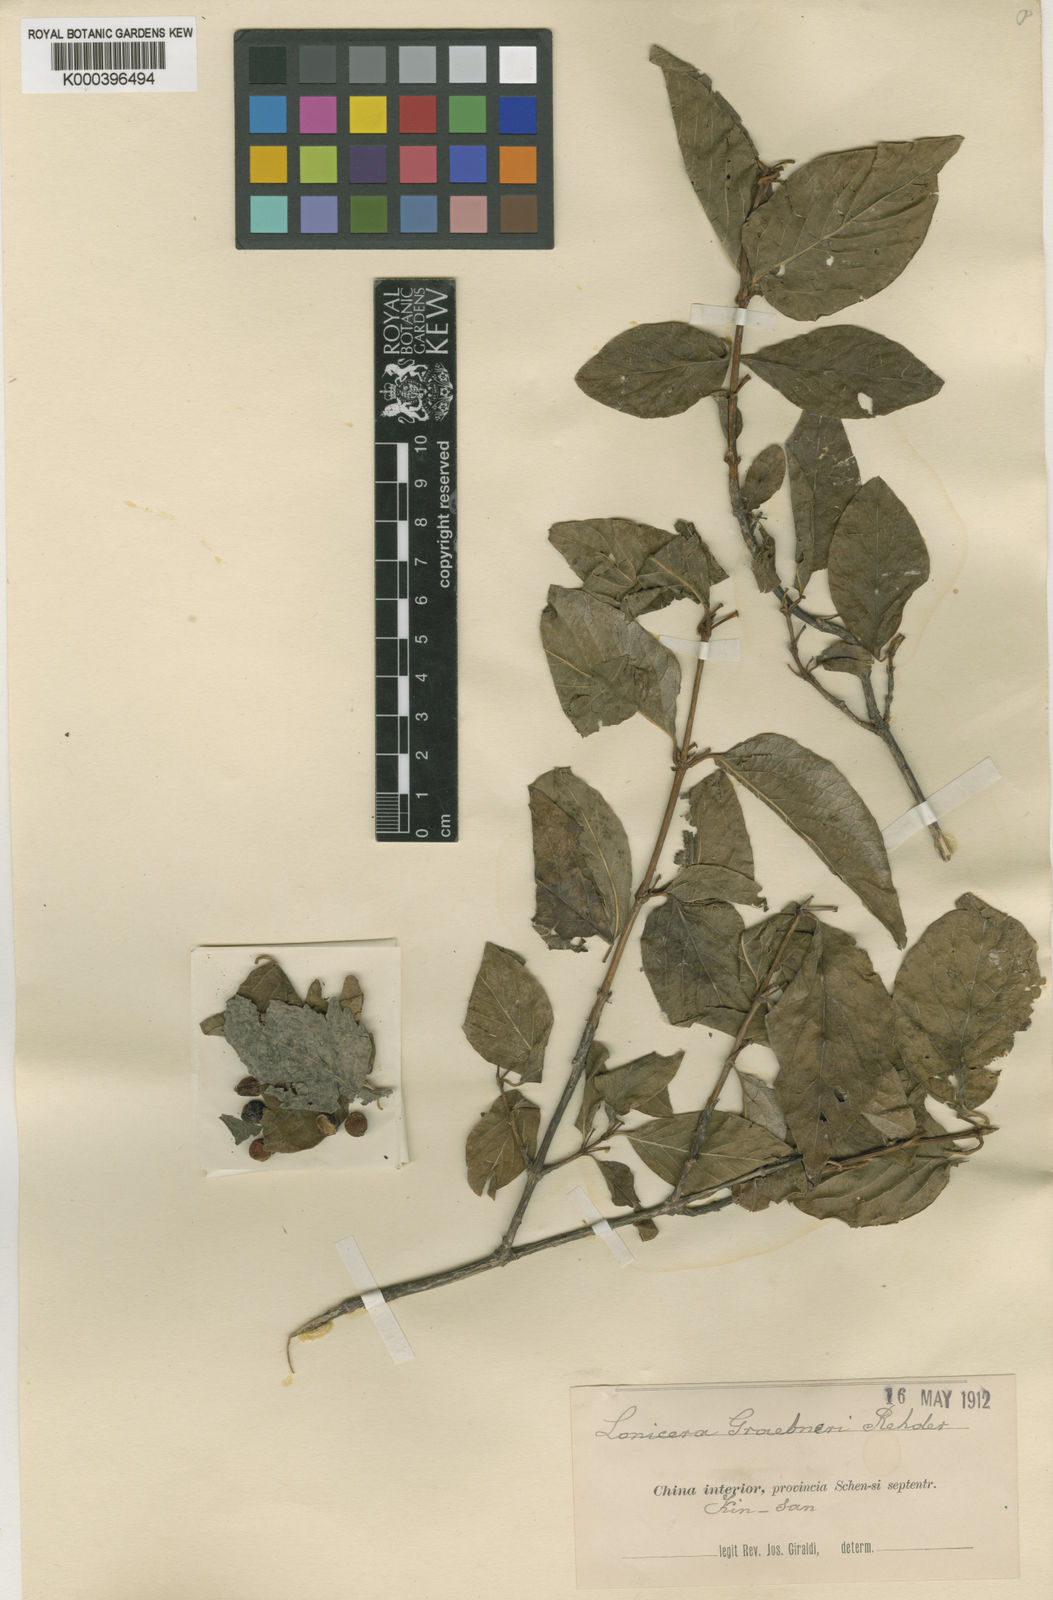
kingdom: Plantae
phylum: Tracheophyta
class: Magnoliopsida
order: Dipsacales
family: Caprifoliaceae
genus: Lonicera
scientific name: Lonicera modesta
